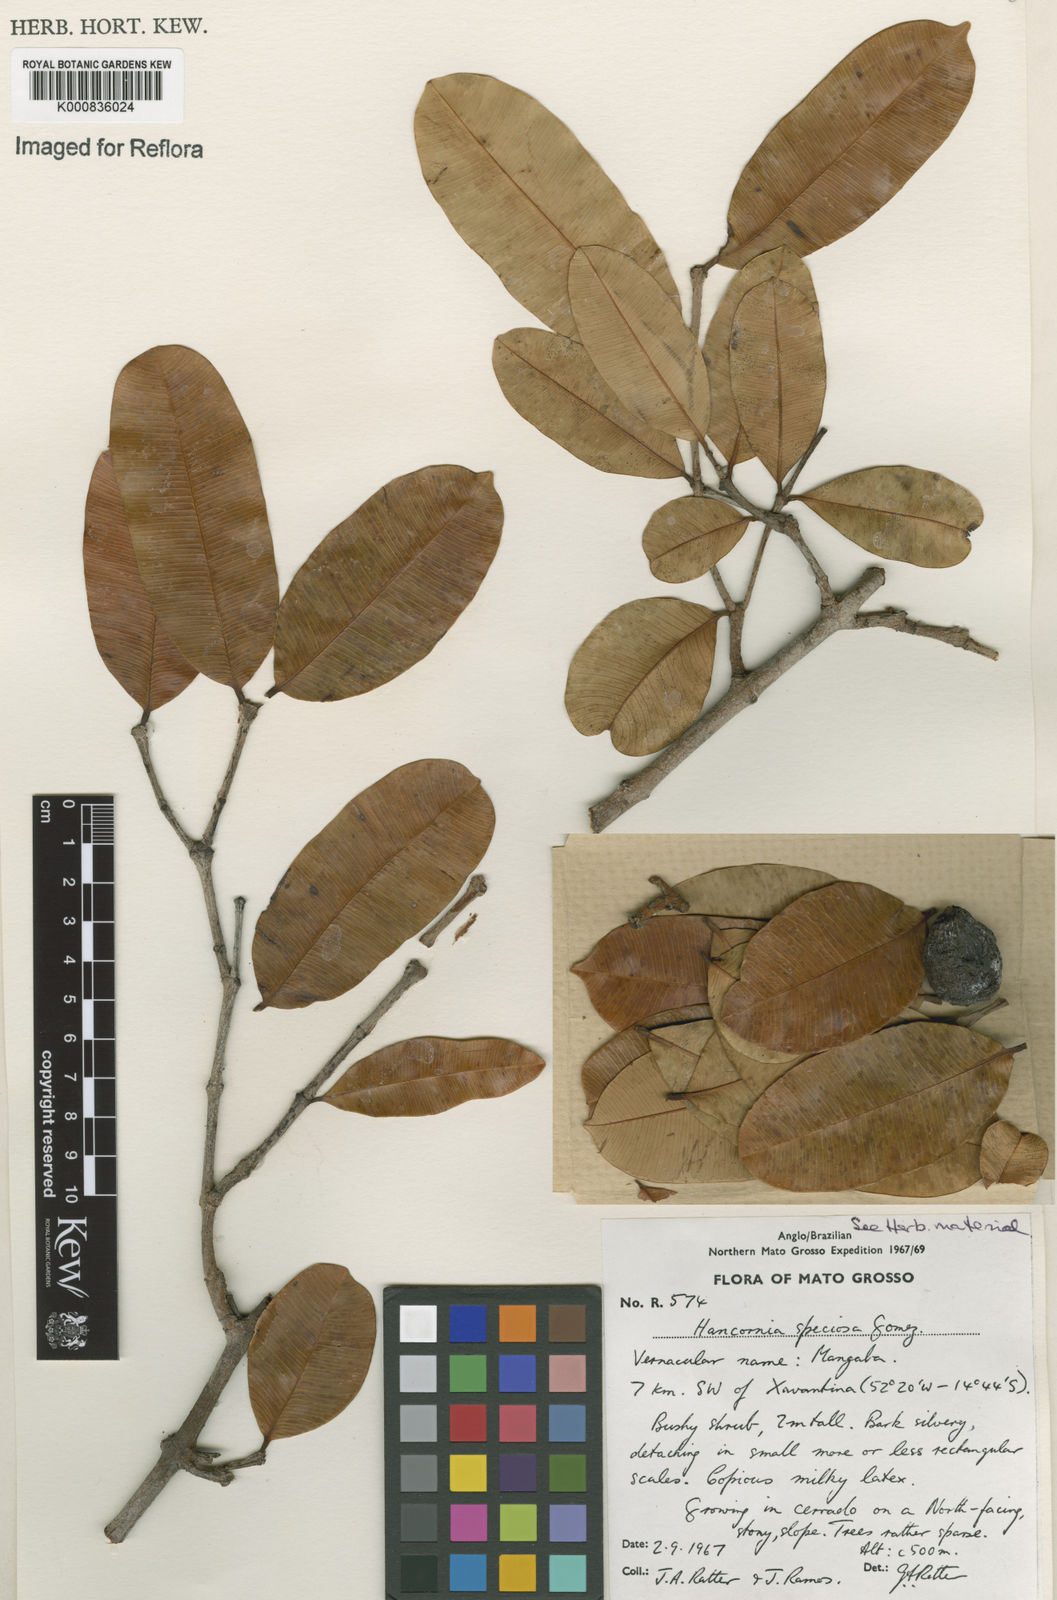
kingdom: Plantae
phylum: Tracheophyta
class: Magnoliopsida
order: Gentianales
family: Apocynaceae
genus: Hancornia
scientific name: Hancornia speciosa
